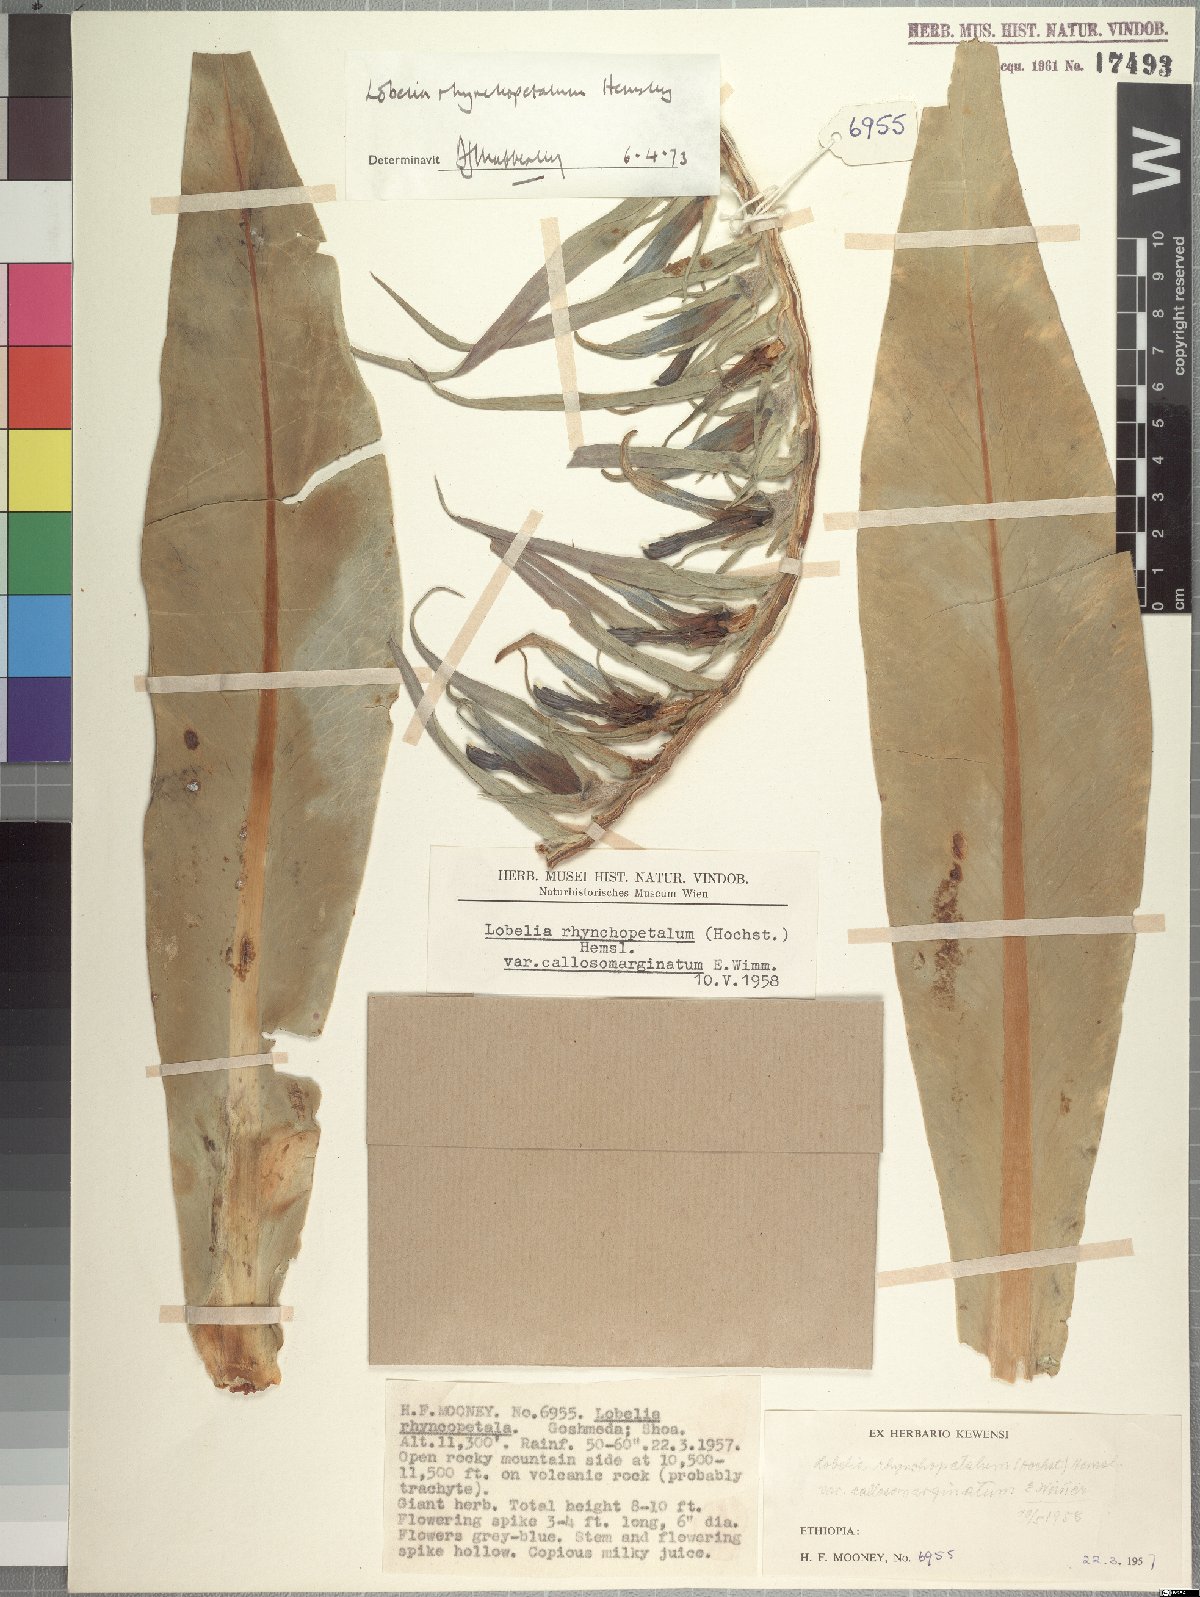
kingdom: Plantae
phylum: Tracheophyta
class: Magnoliopsida
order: Asterales
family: Campanulaceae
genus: Lobelia
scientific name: Lobelia rhynchopetalum
